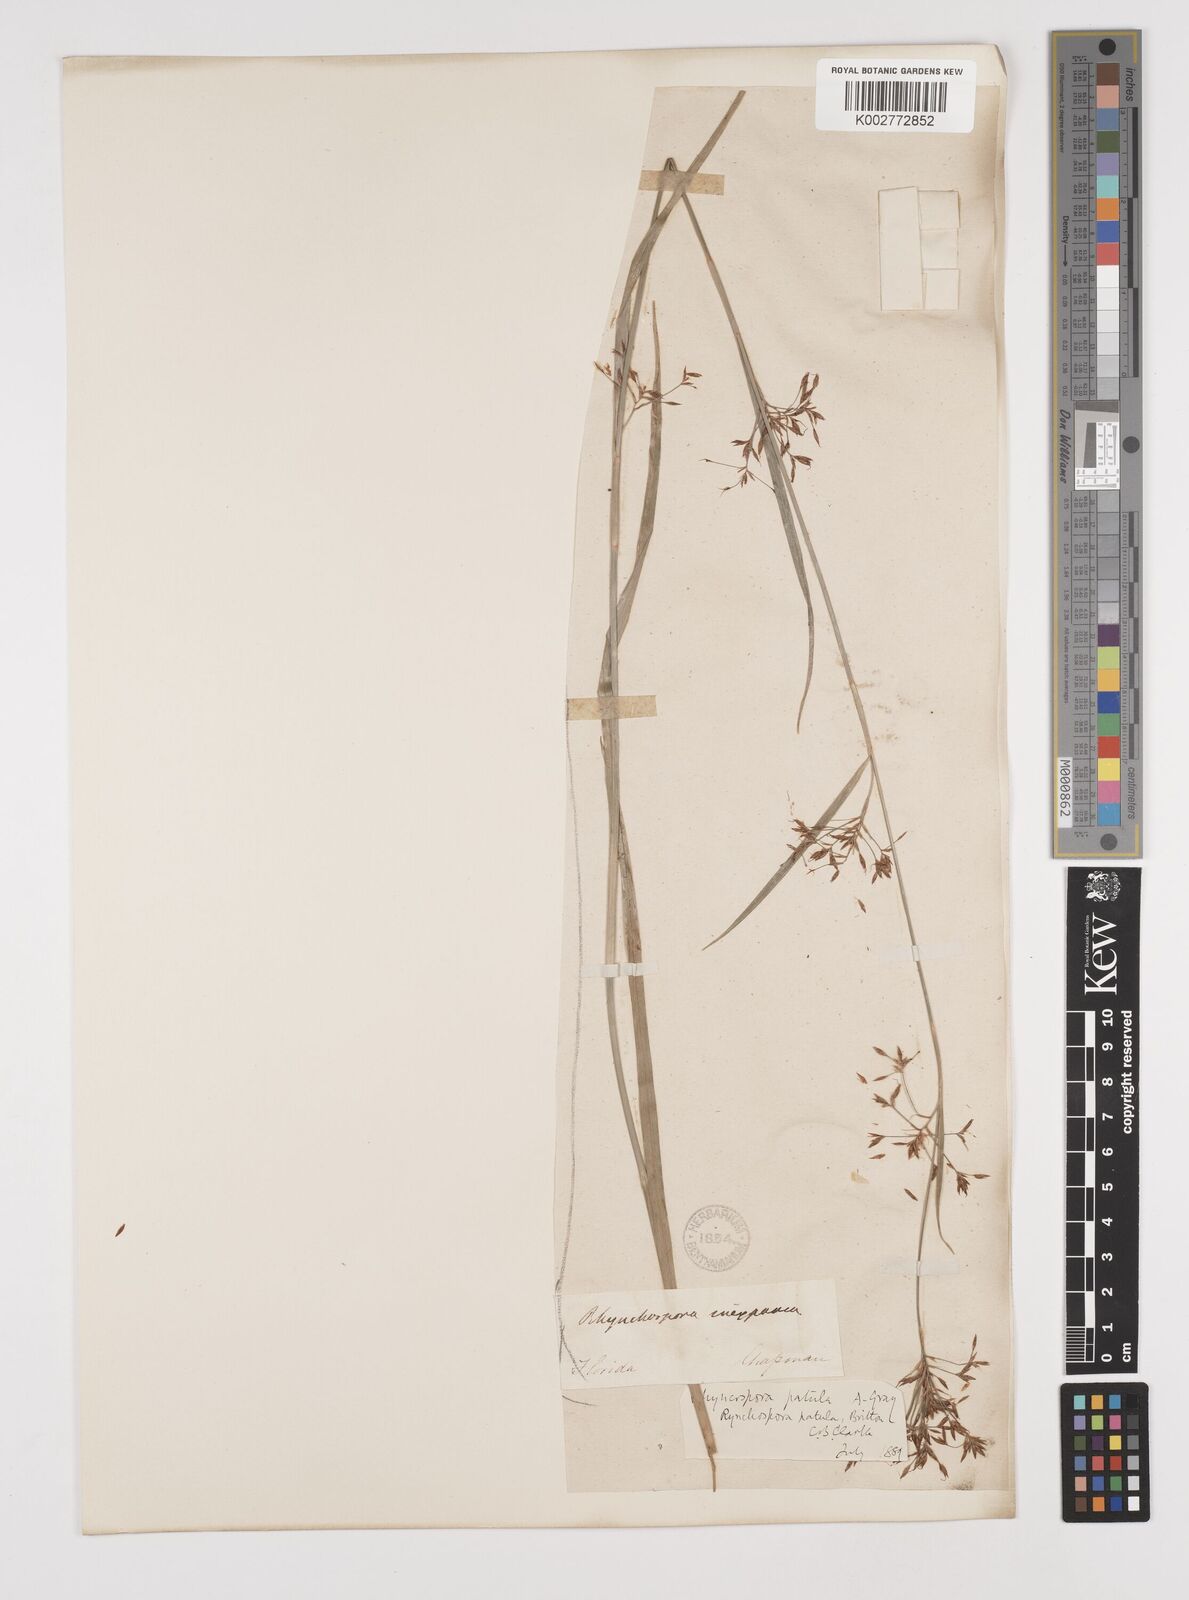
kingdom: Plantae
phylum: Tracheophyta
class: Liliopsida
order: Poales
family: Cyperaceae
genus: Rhynchospora
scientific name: Rhynchospora caduca
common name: Anglestem beaksedge
